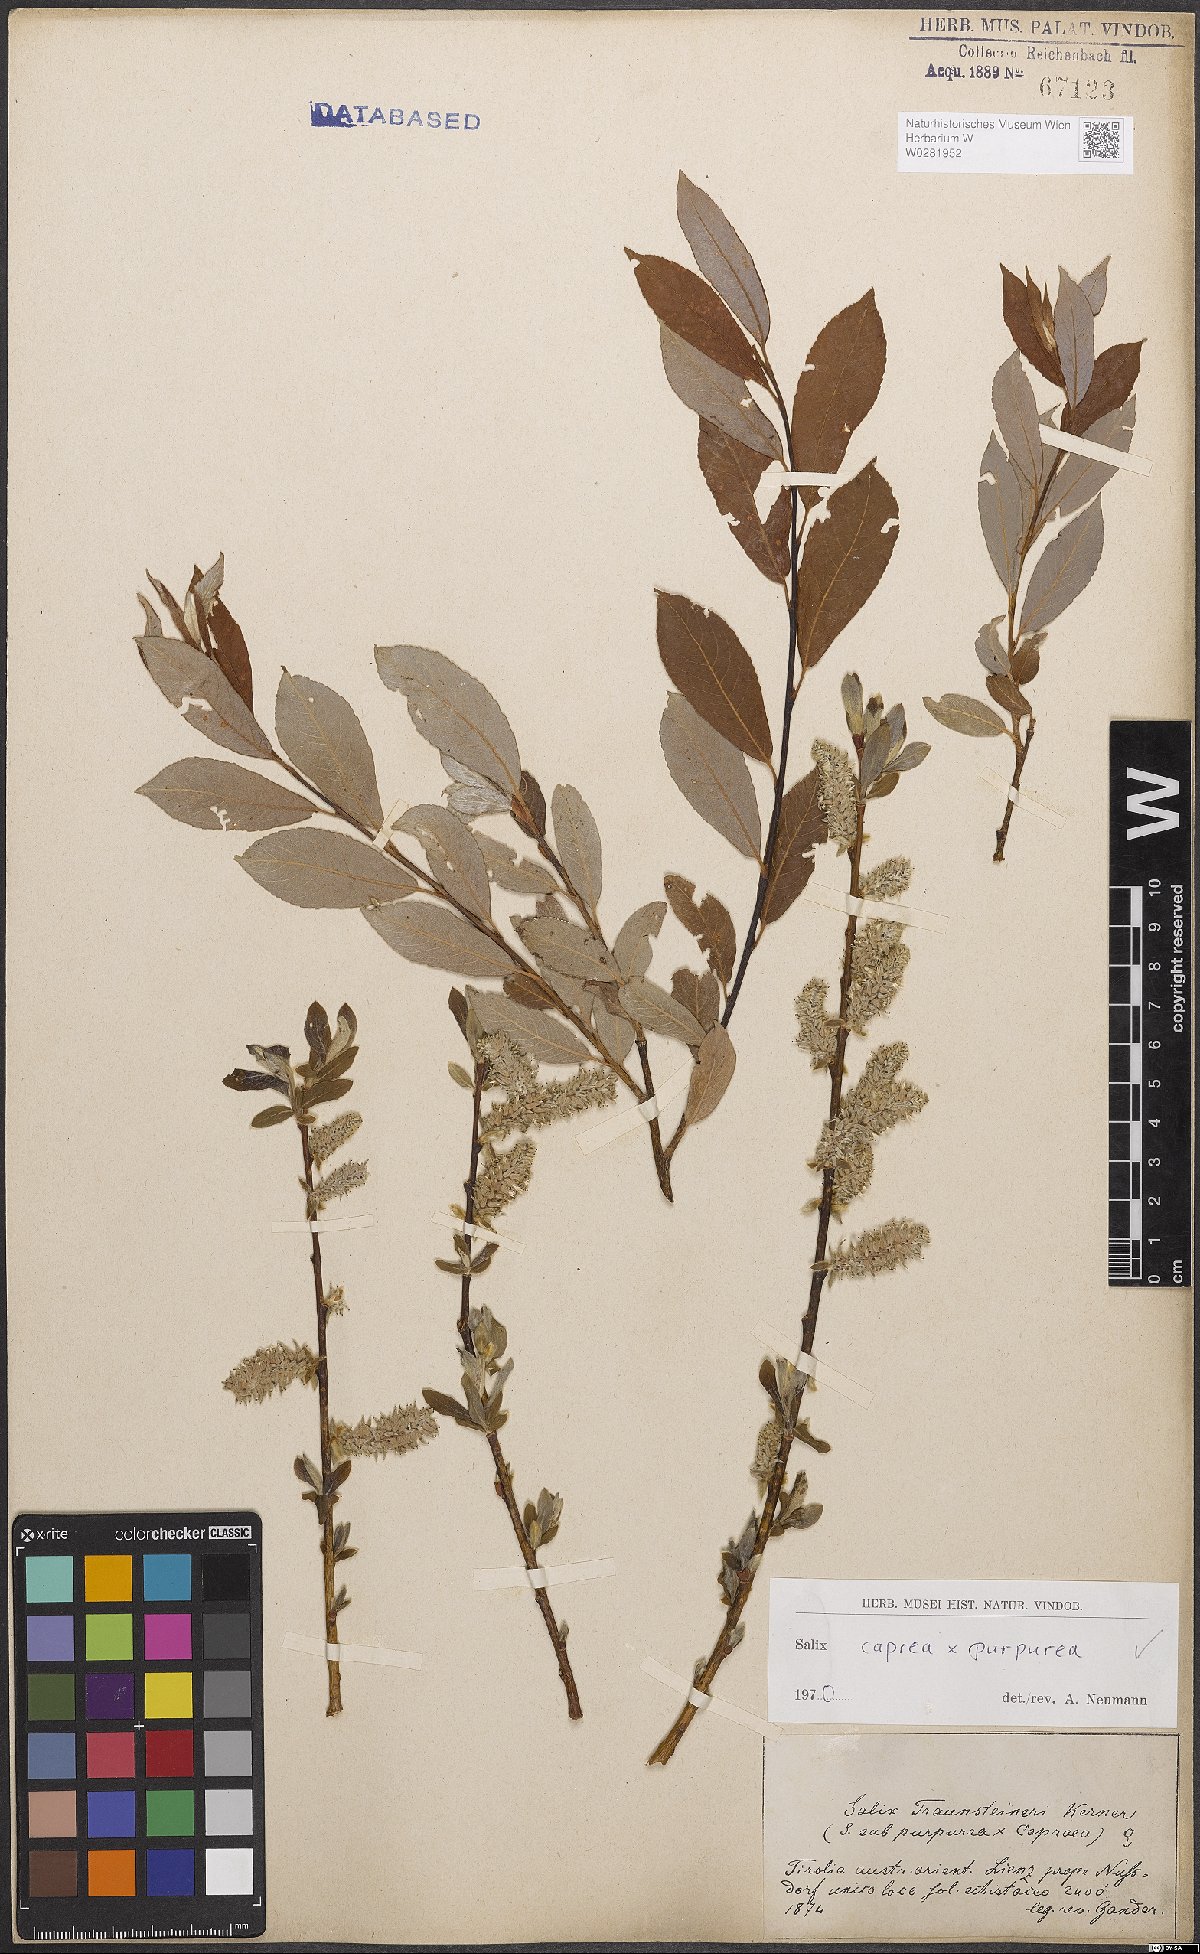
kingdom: Plantae
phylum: Tracheophyta
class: Magnoliopsida
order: Malpighiales
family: Salicaceae
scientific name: Salicaceae
